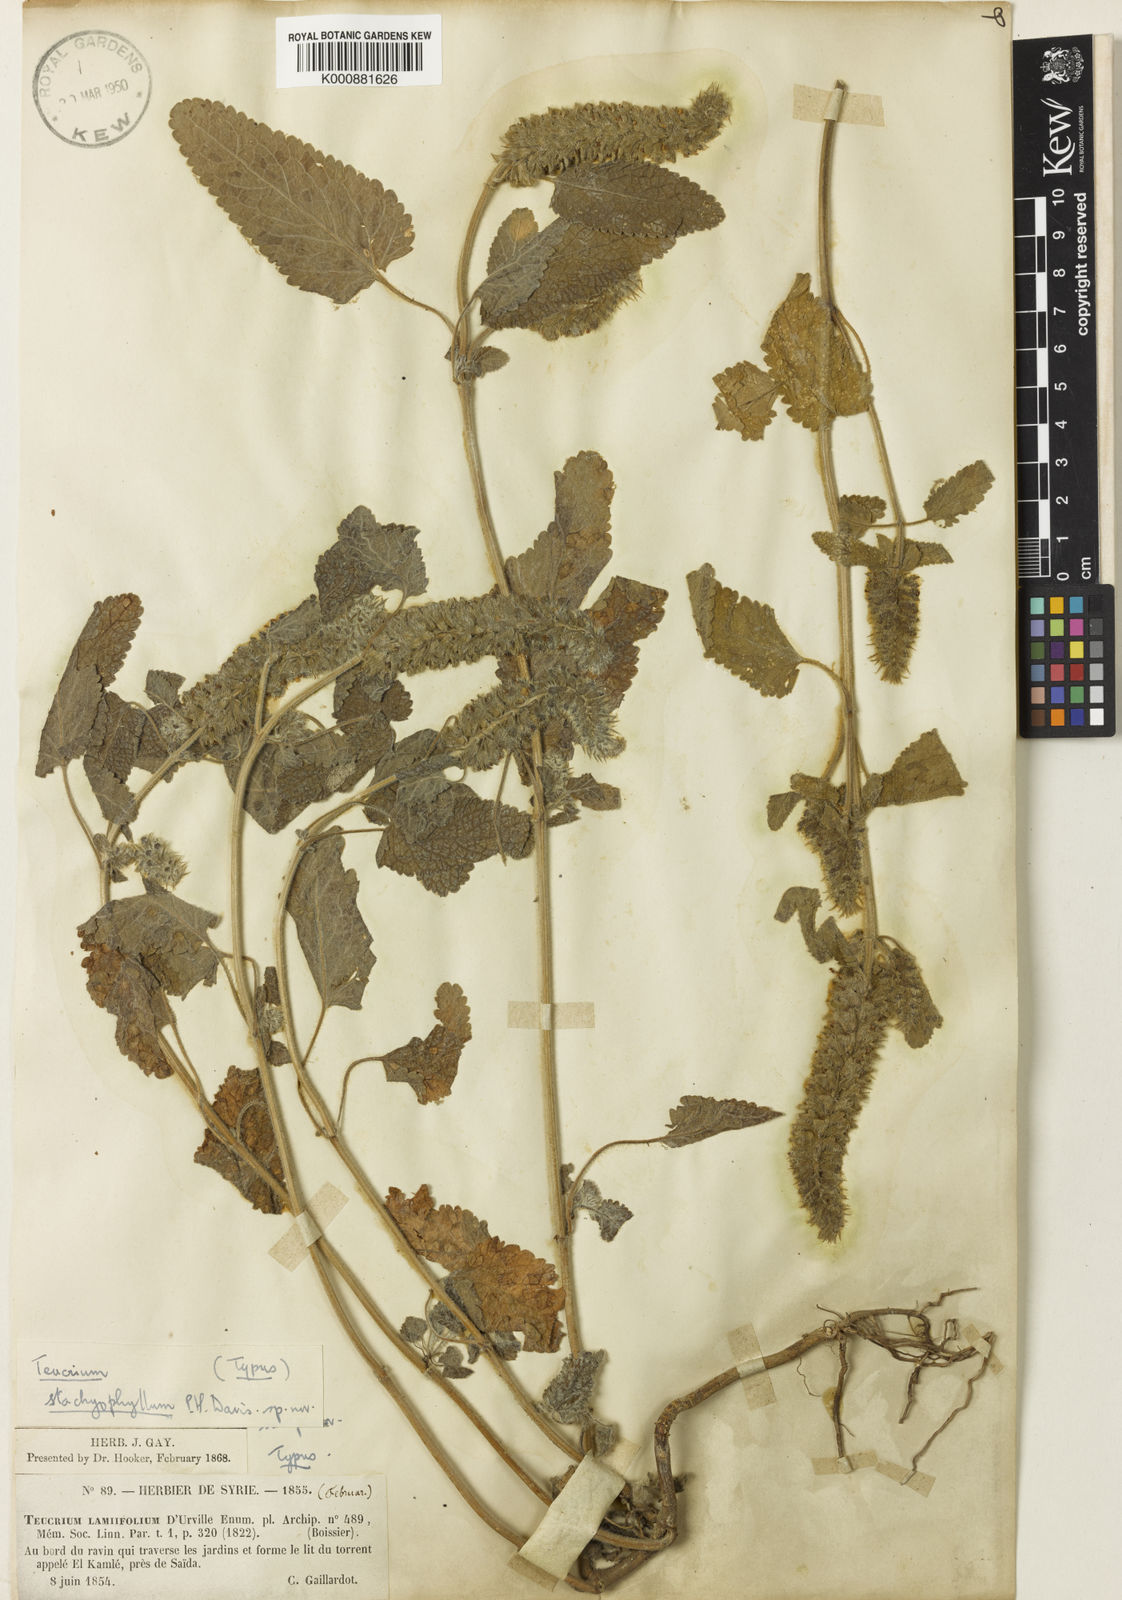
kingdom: Plantae
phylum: Tracheophyta
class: Magnoliopsida
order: Lamiales
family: Lamiaceae
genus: Teucrium
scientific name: Teucrium stachyophyllum
